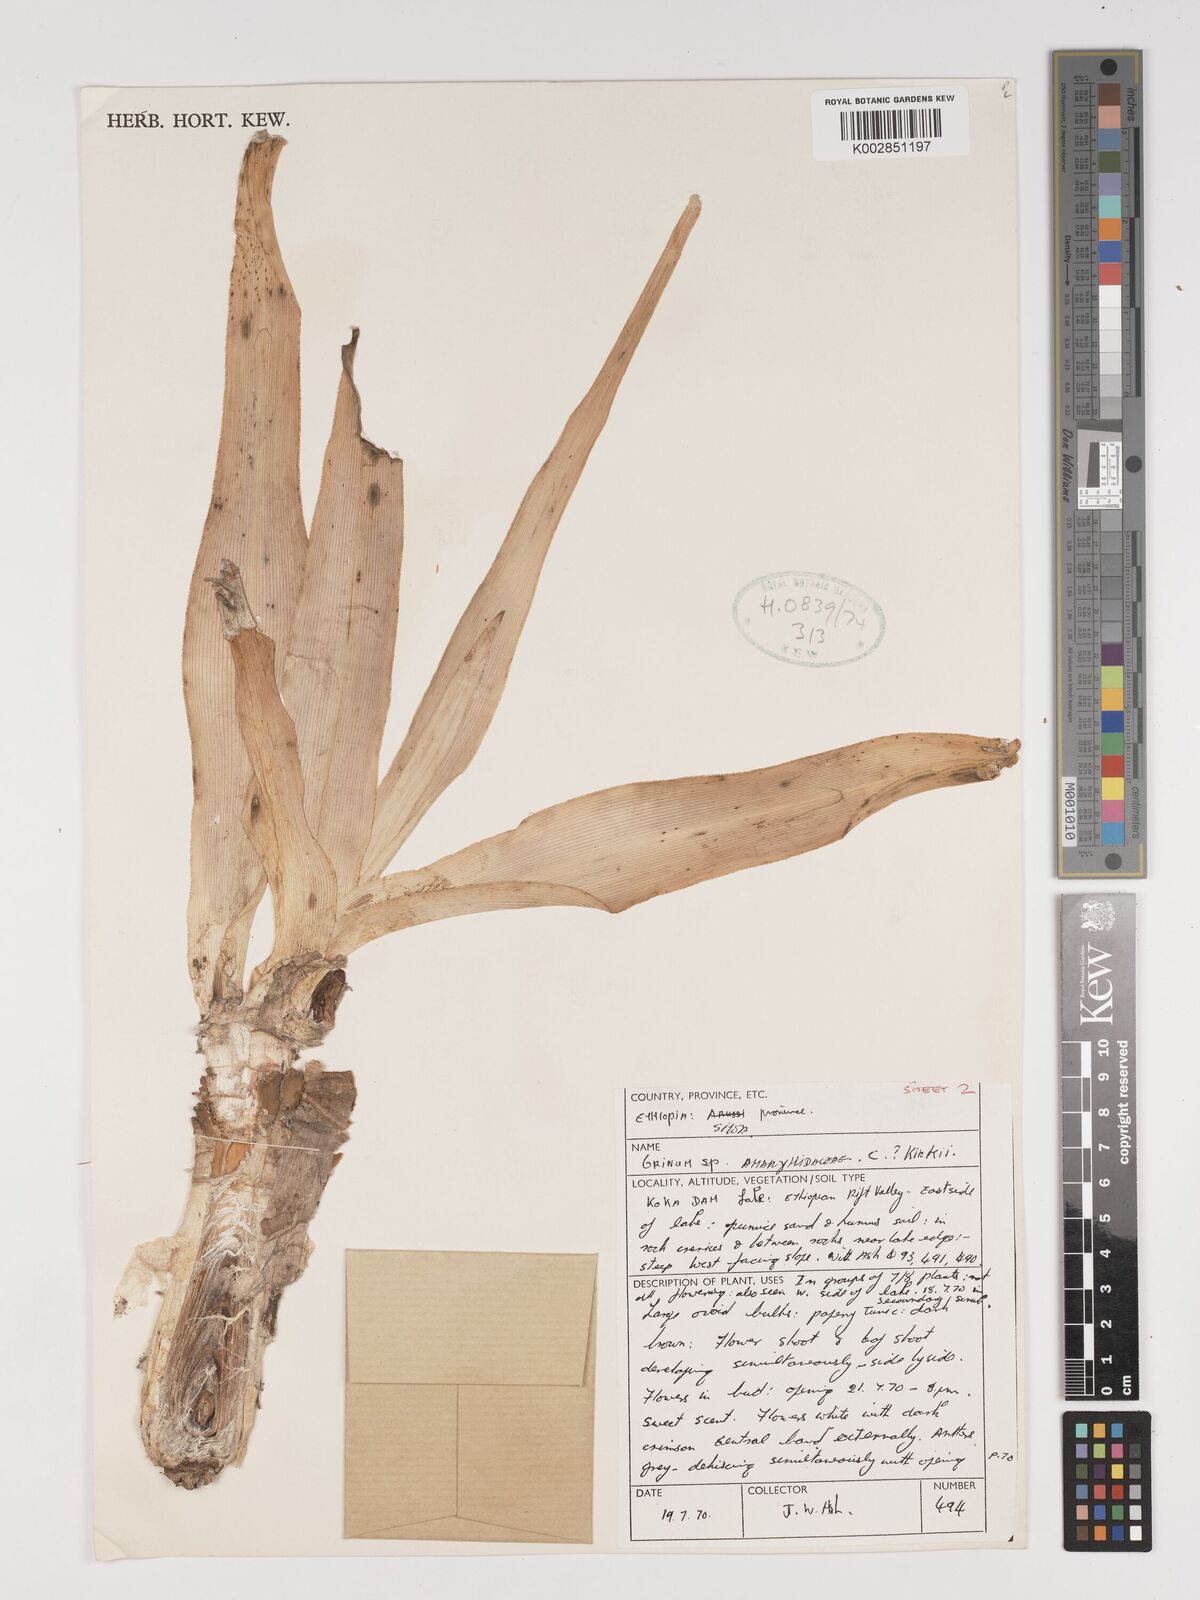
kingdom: Plantae
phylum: Tracheophyta
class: Liliopsida
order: Asparagales
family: Amaryllidaceae
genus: Crinum
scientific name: Crinum zeylanicum
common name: Ceylon swamplily
